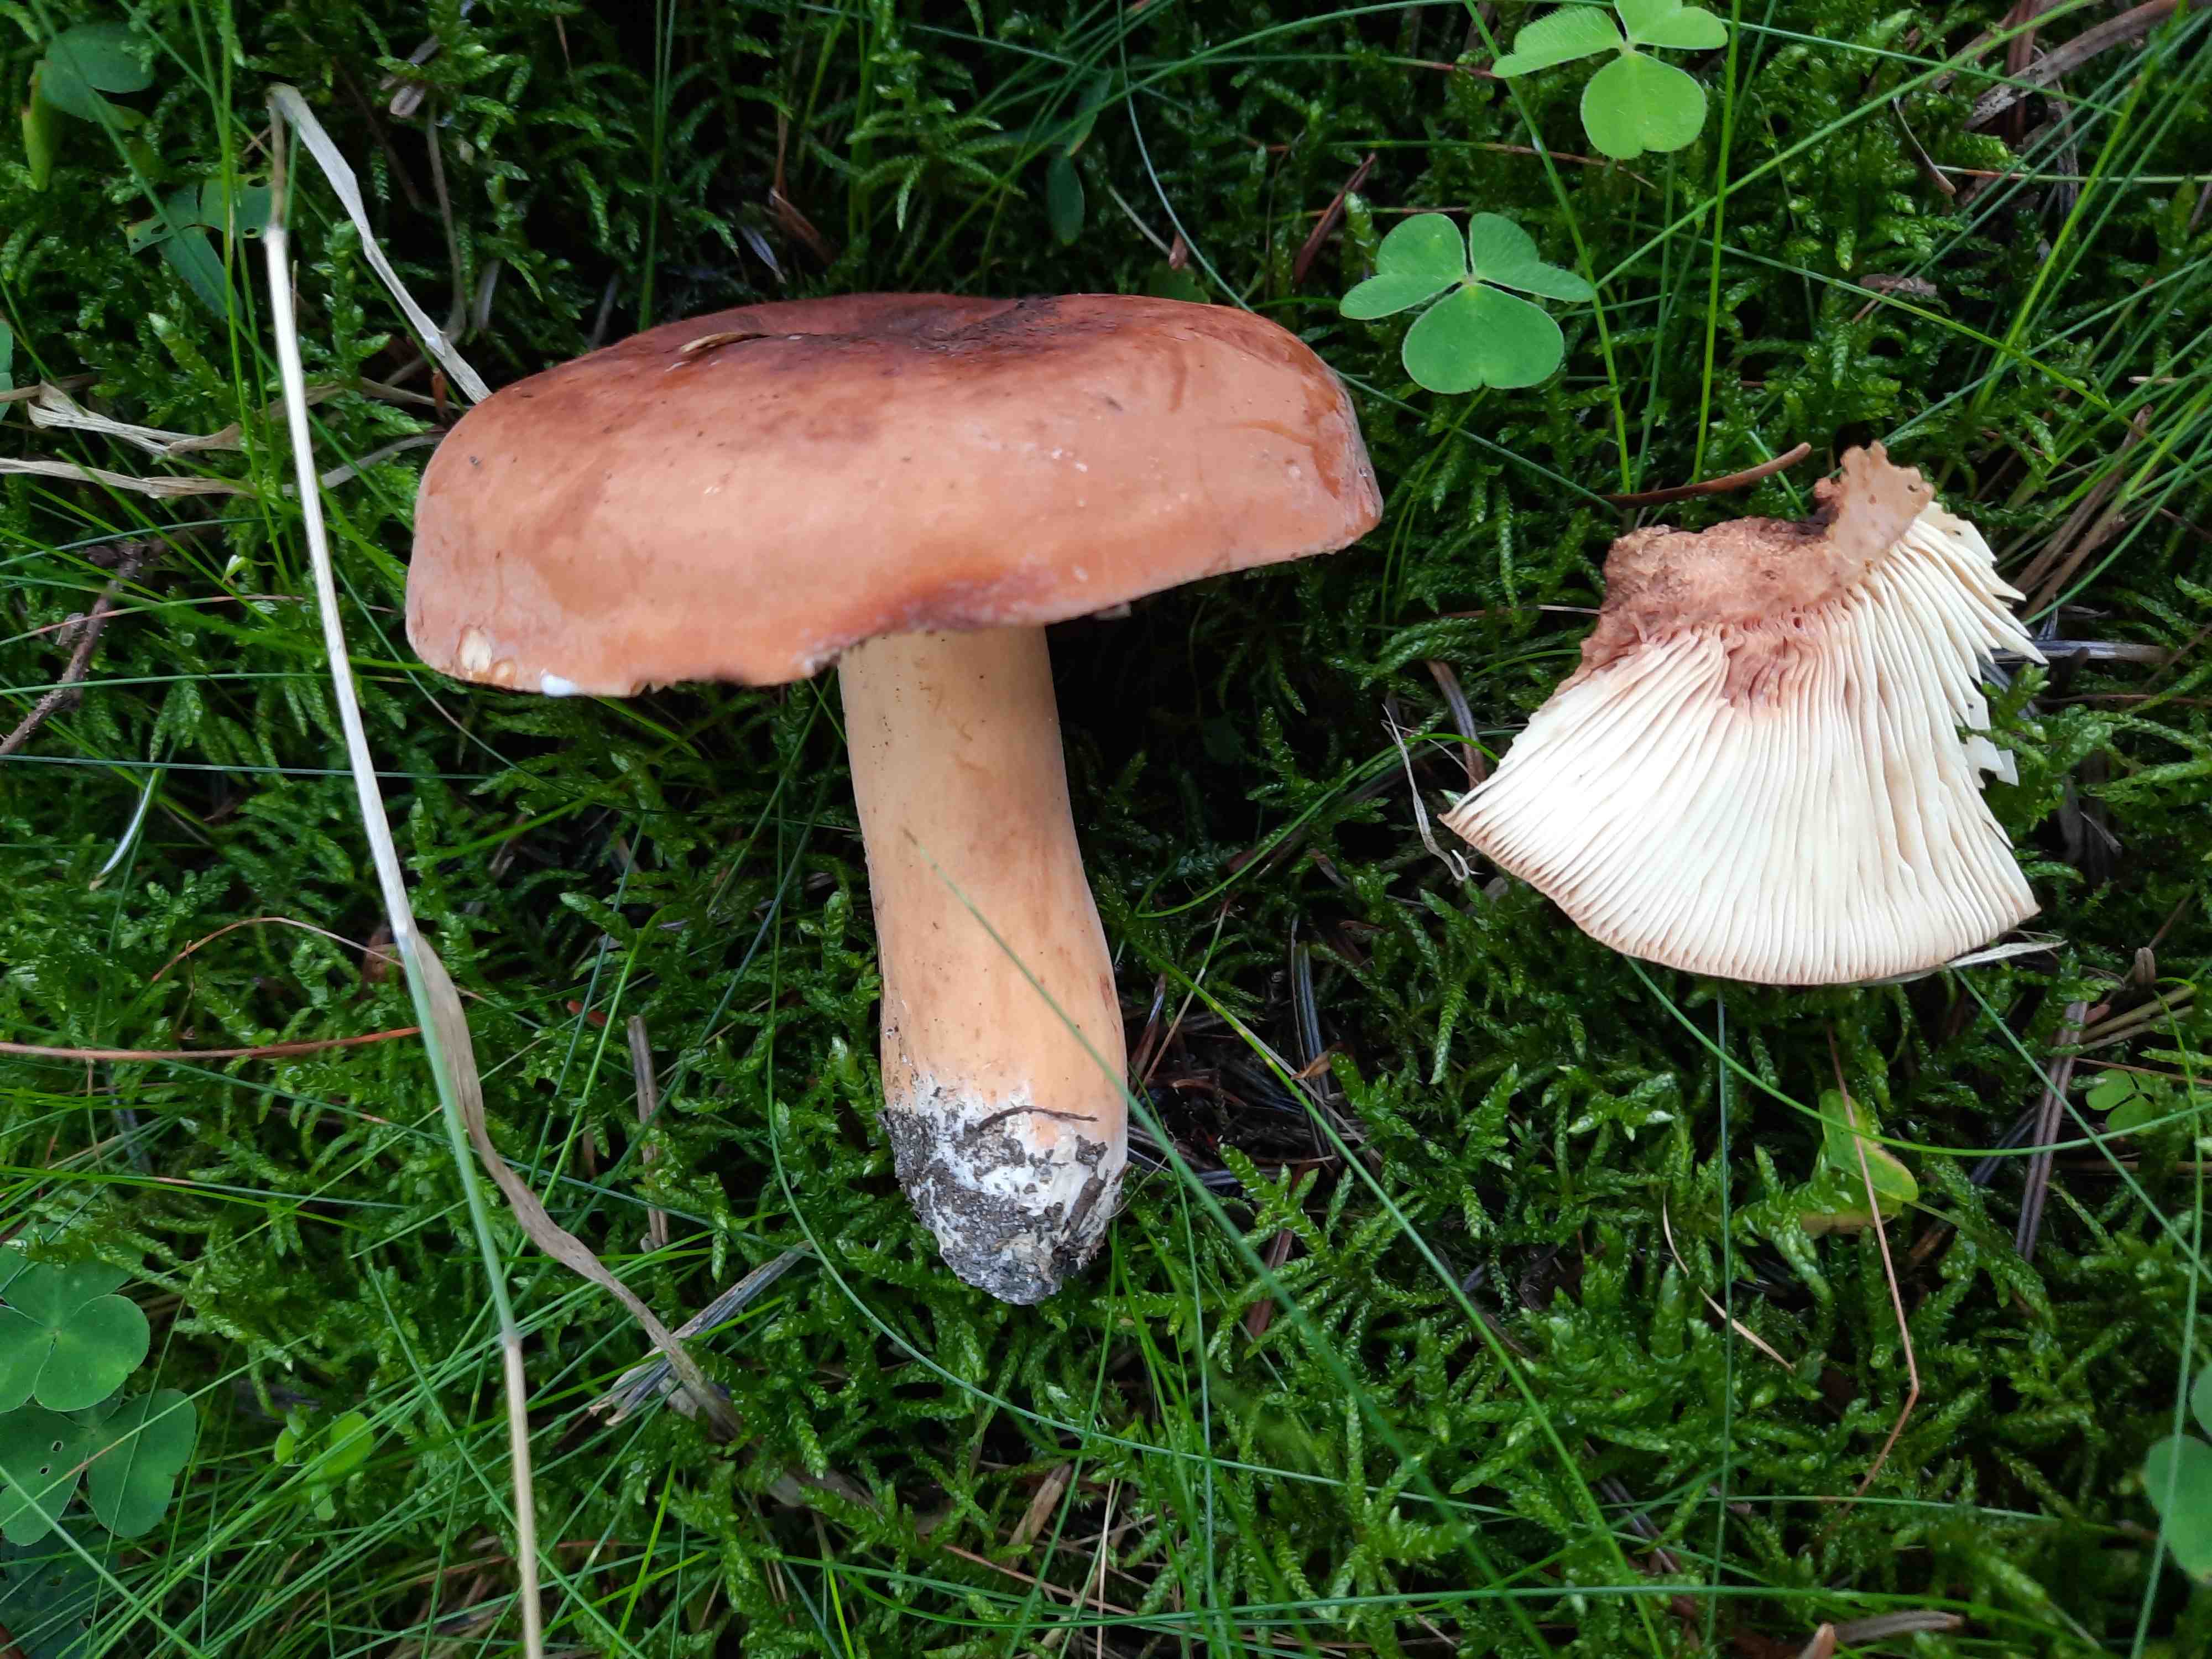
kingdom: Fungi
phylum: Basidiomycota
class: Agaricomycetes
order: Russulales
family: Russulaceae
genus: Lactifluus
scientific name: Lactifluus volemus
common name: spiselig mælkehat
